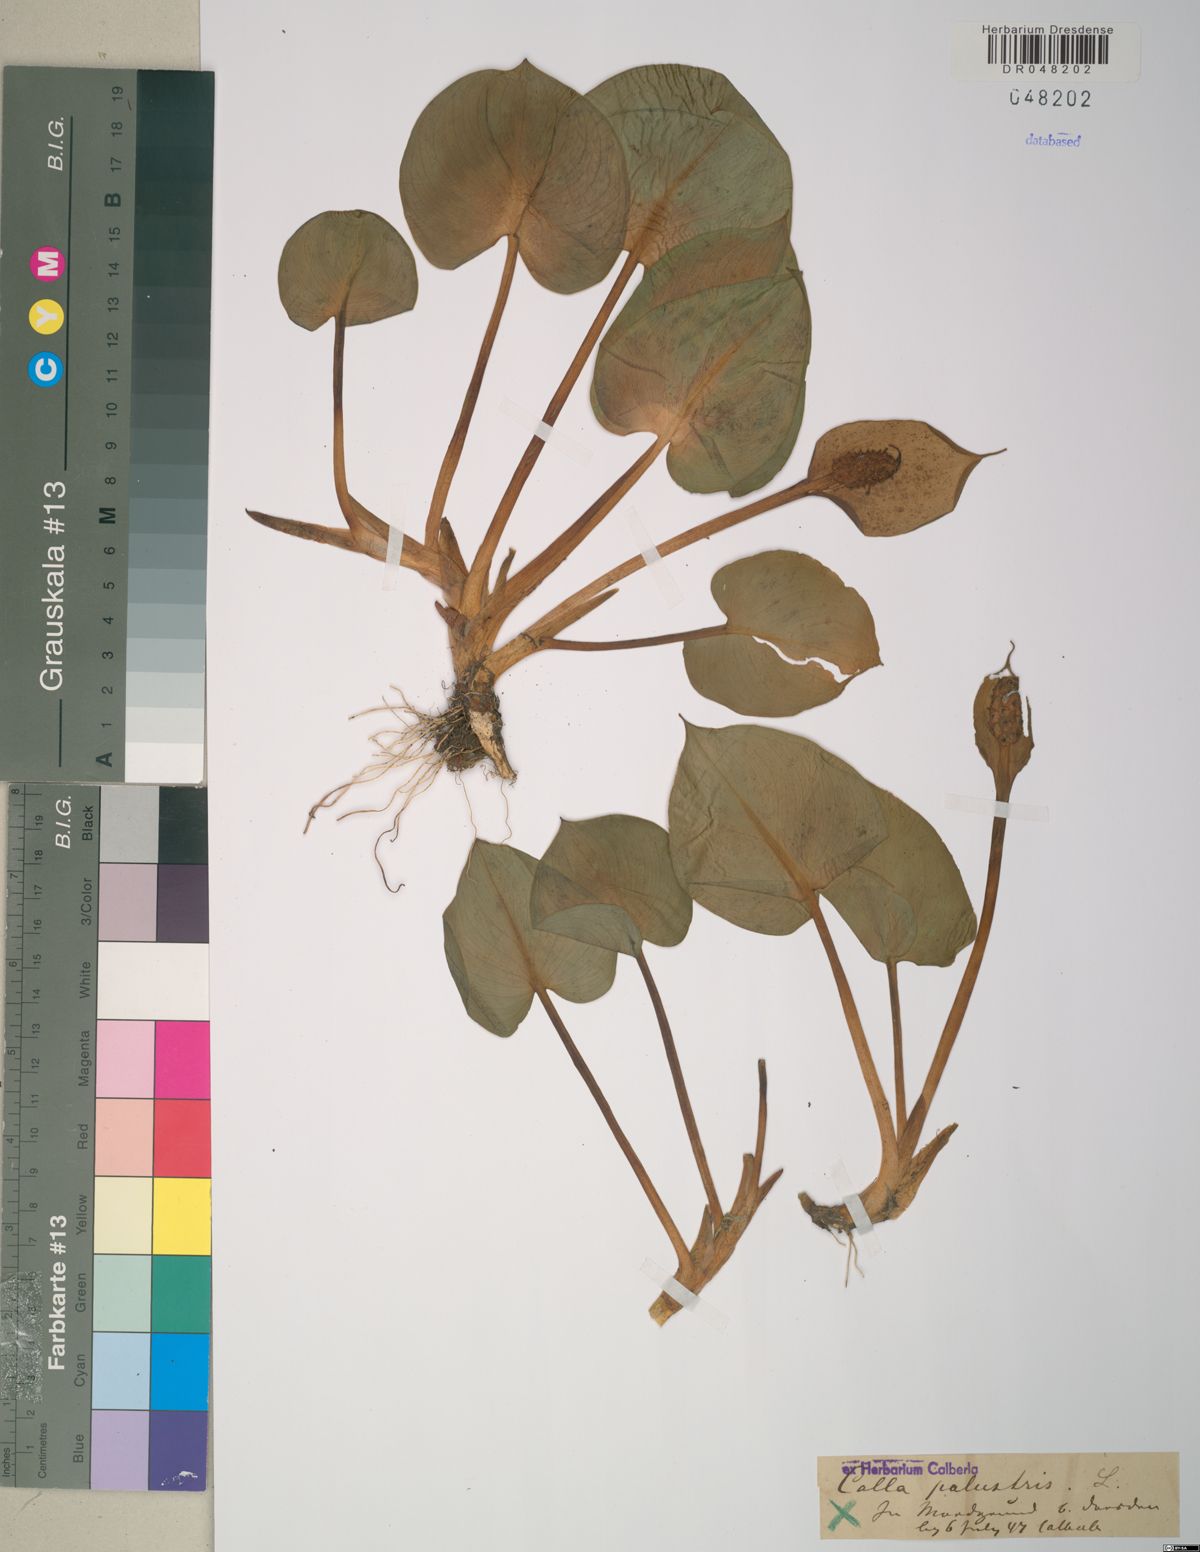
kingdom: Plantae
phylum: Tracheophyta
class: Liliopsida
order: Alismatales
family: Araceae
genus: Calla
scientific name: Calla palustris
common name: Bog arum
